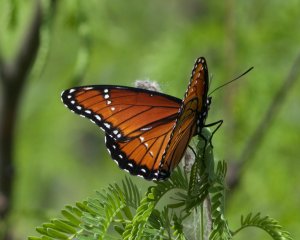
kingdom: Animalia
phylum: Arthropoda
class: Insecta
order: Lepidoptera
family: Nymphalidae
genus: Limenitis
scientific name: Limenitis archippus
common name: Viceroy
